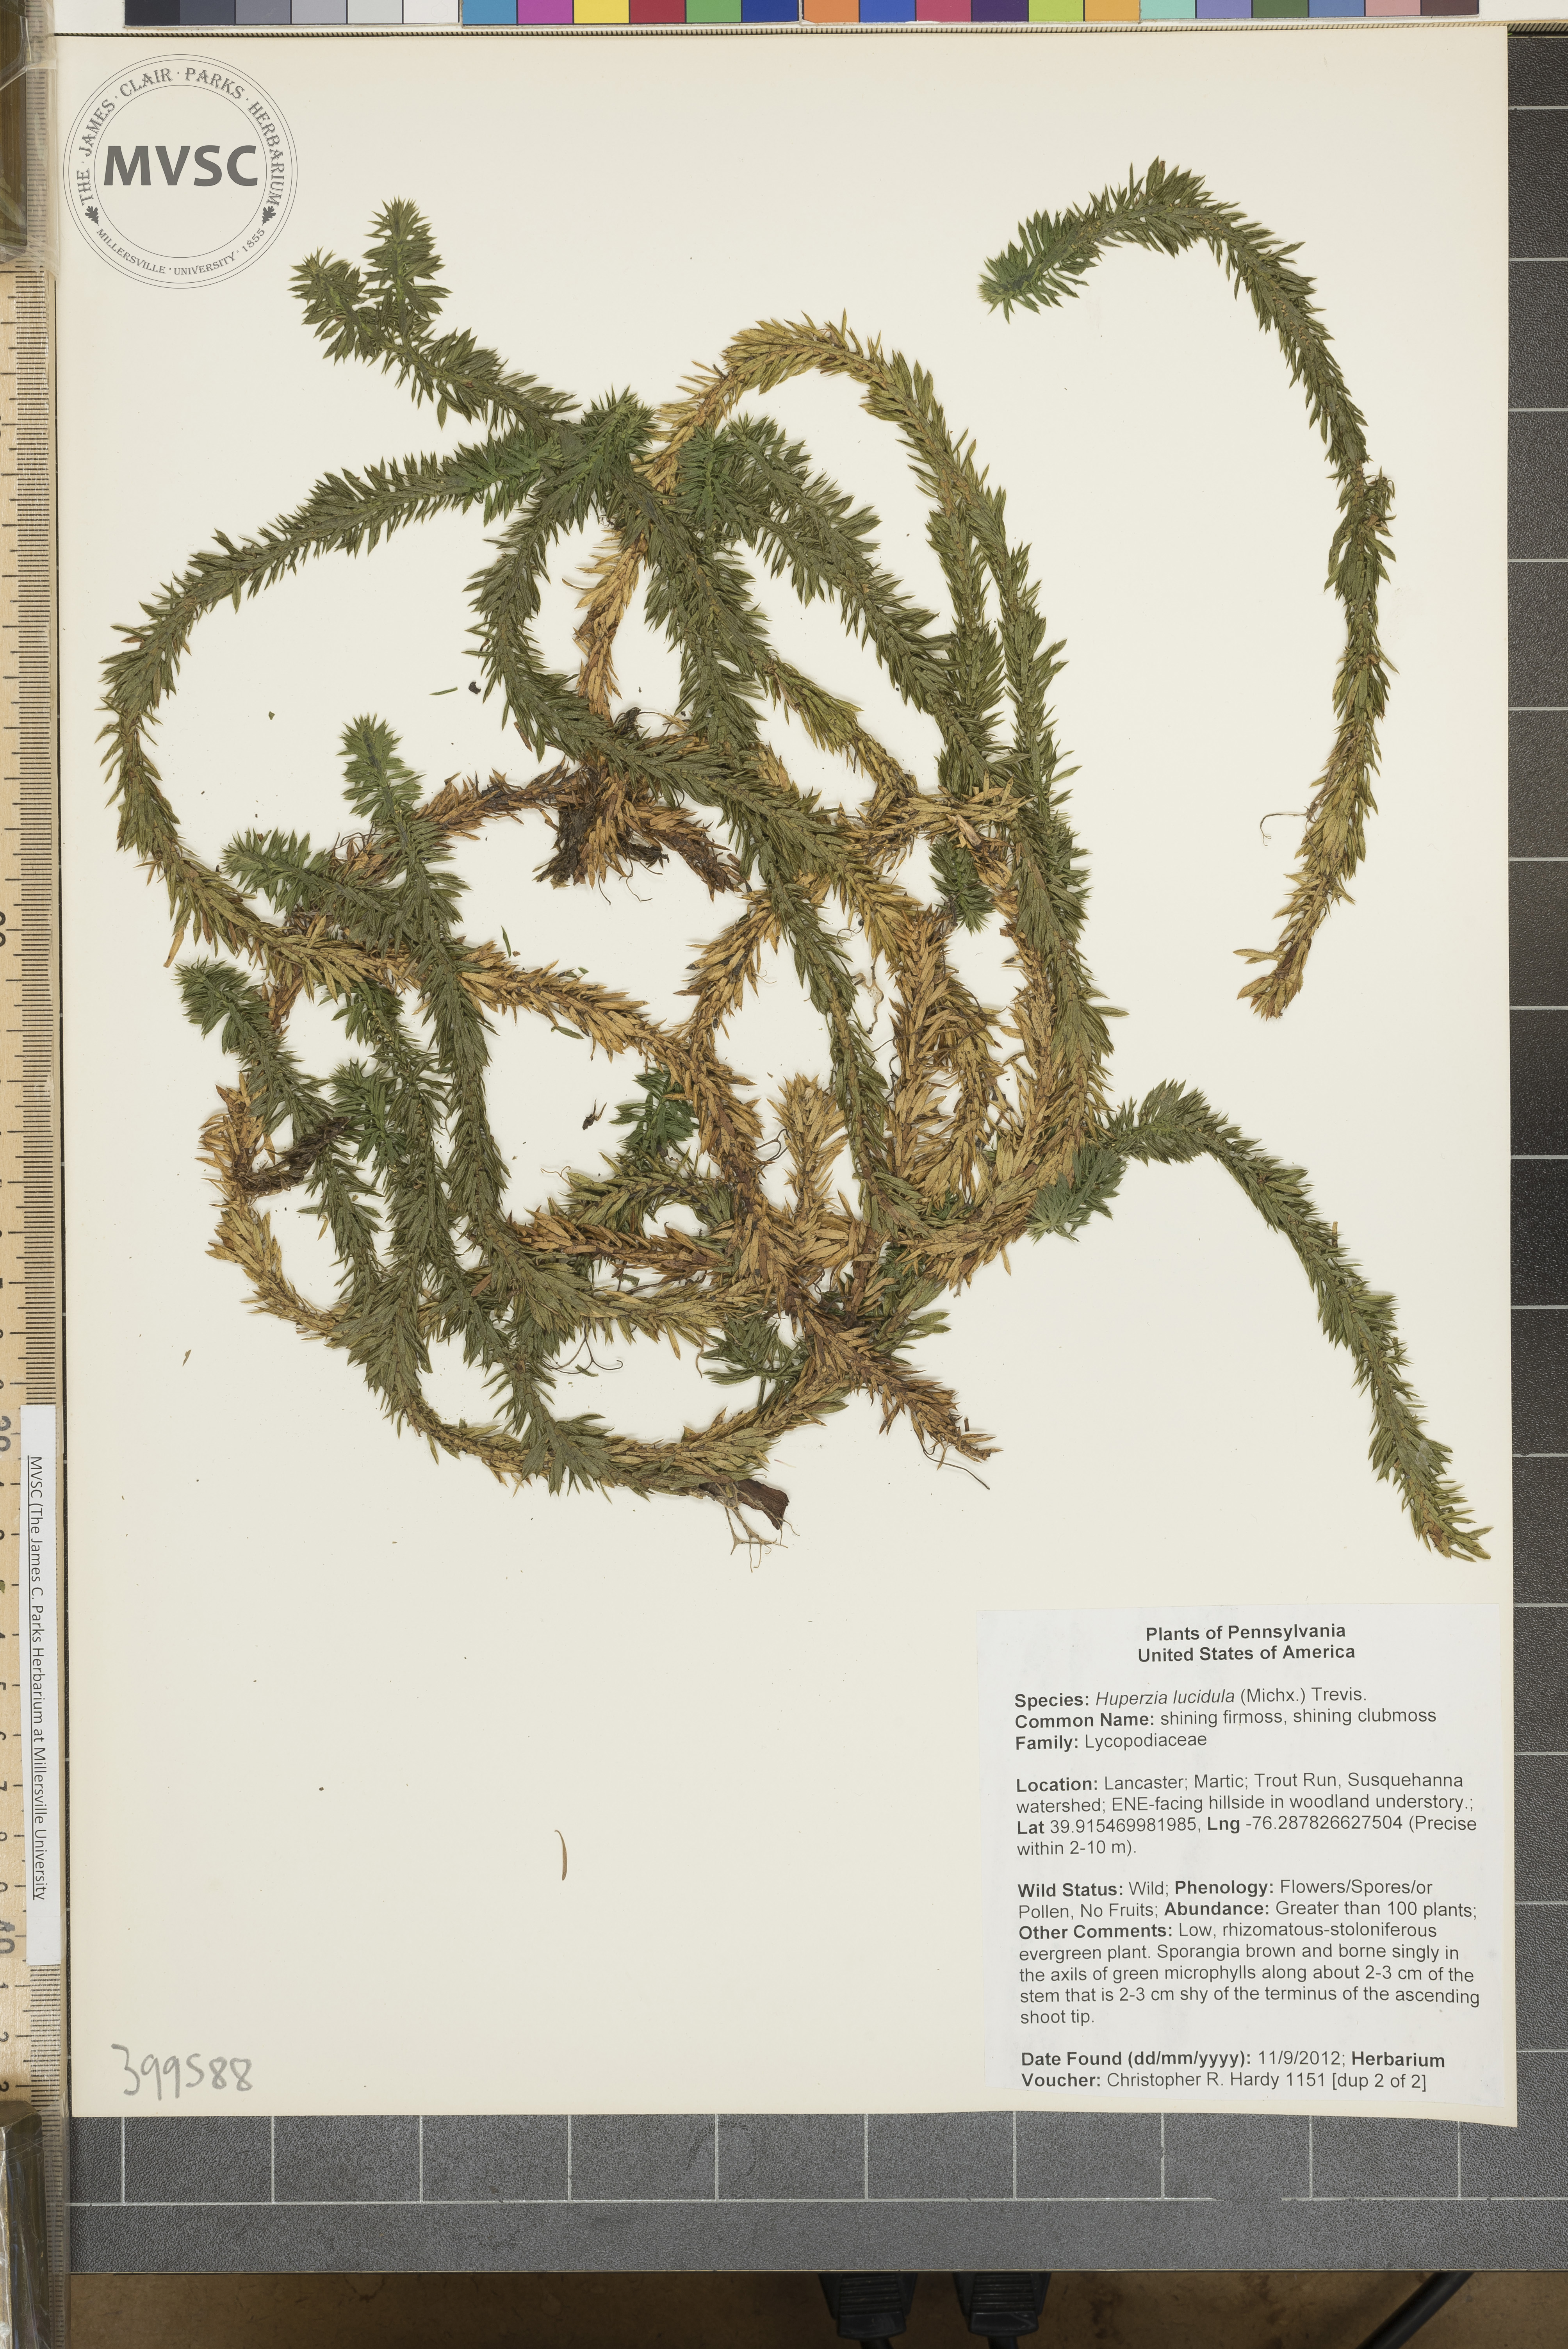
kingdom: Plantae
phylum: Tracheophyta
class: Lycopodiopsida
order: Lycopodiales
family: Lycopodiaceae
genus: Huperzia
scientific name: Huperzia lucidula
